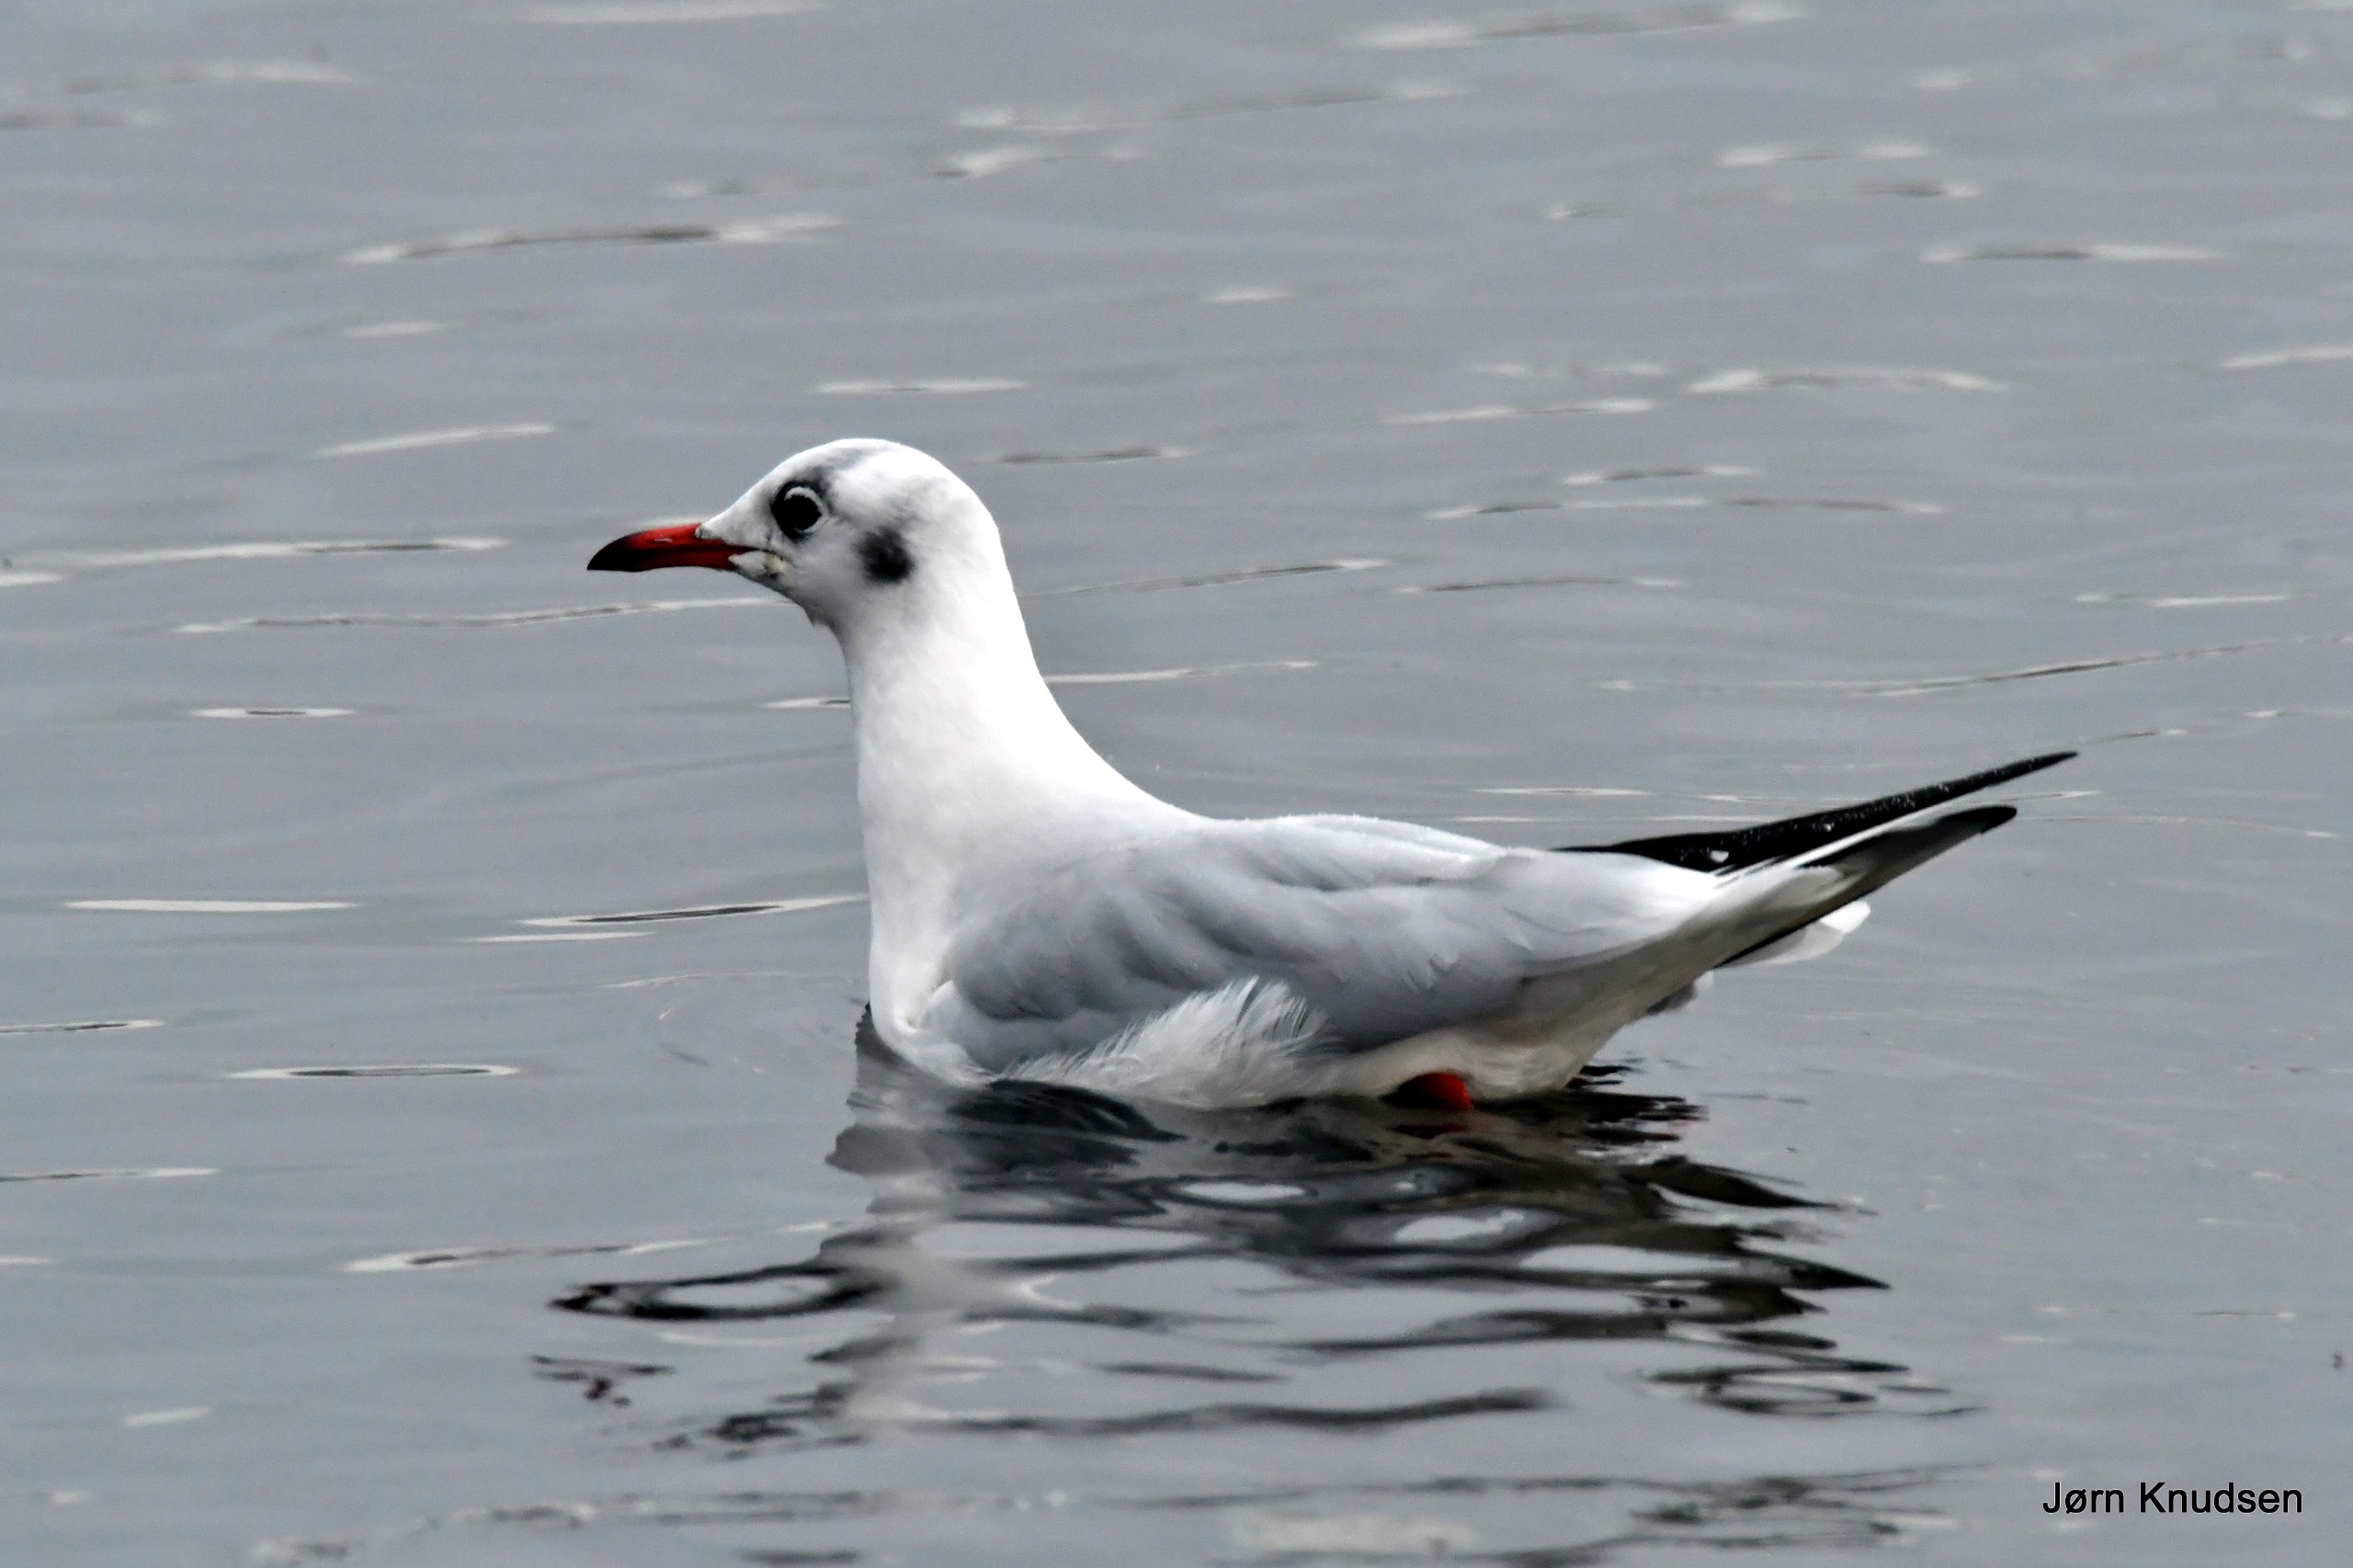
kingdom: Animalia
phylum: Chordata
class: Aves
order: Charadriiformes
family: Laridae
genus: Chroicocephalus
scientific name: Chroicocephalus ridibundus
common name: Hættemåge
